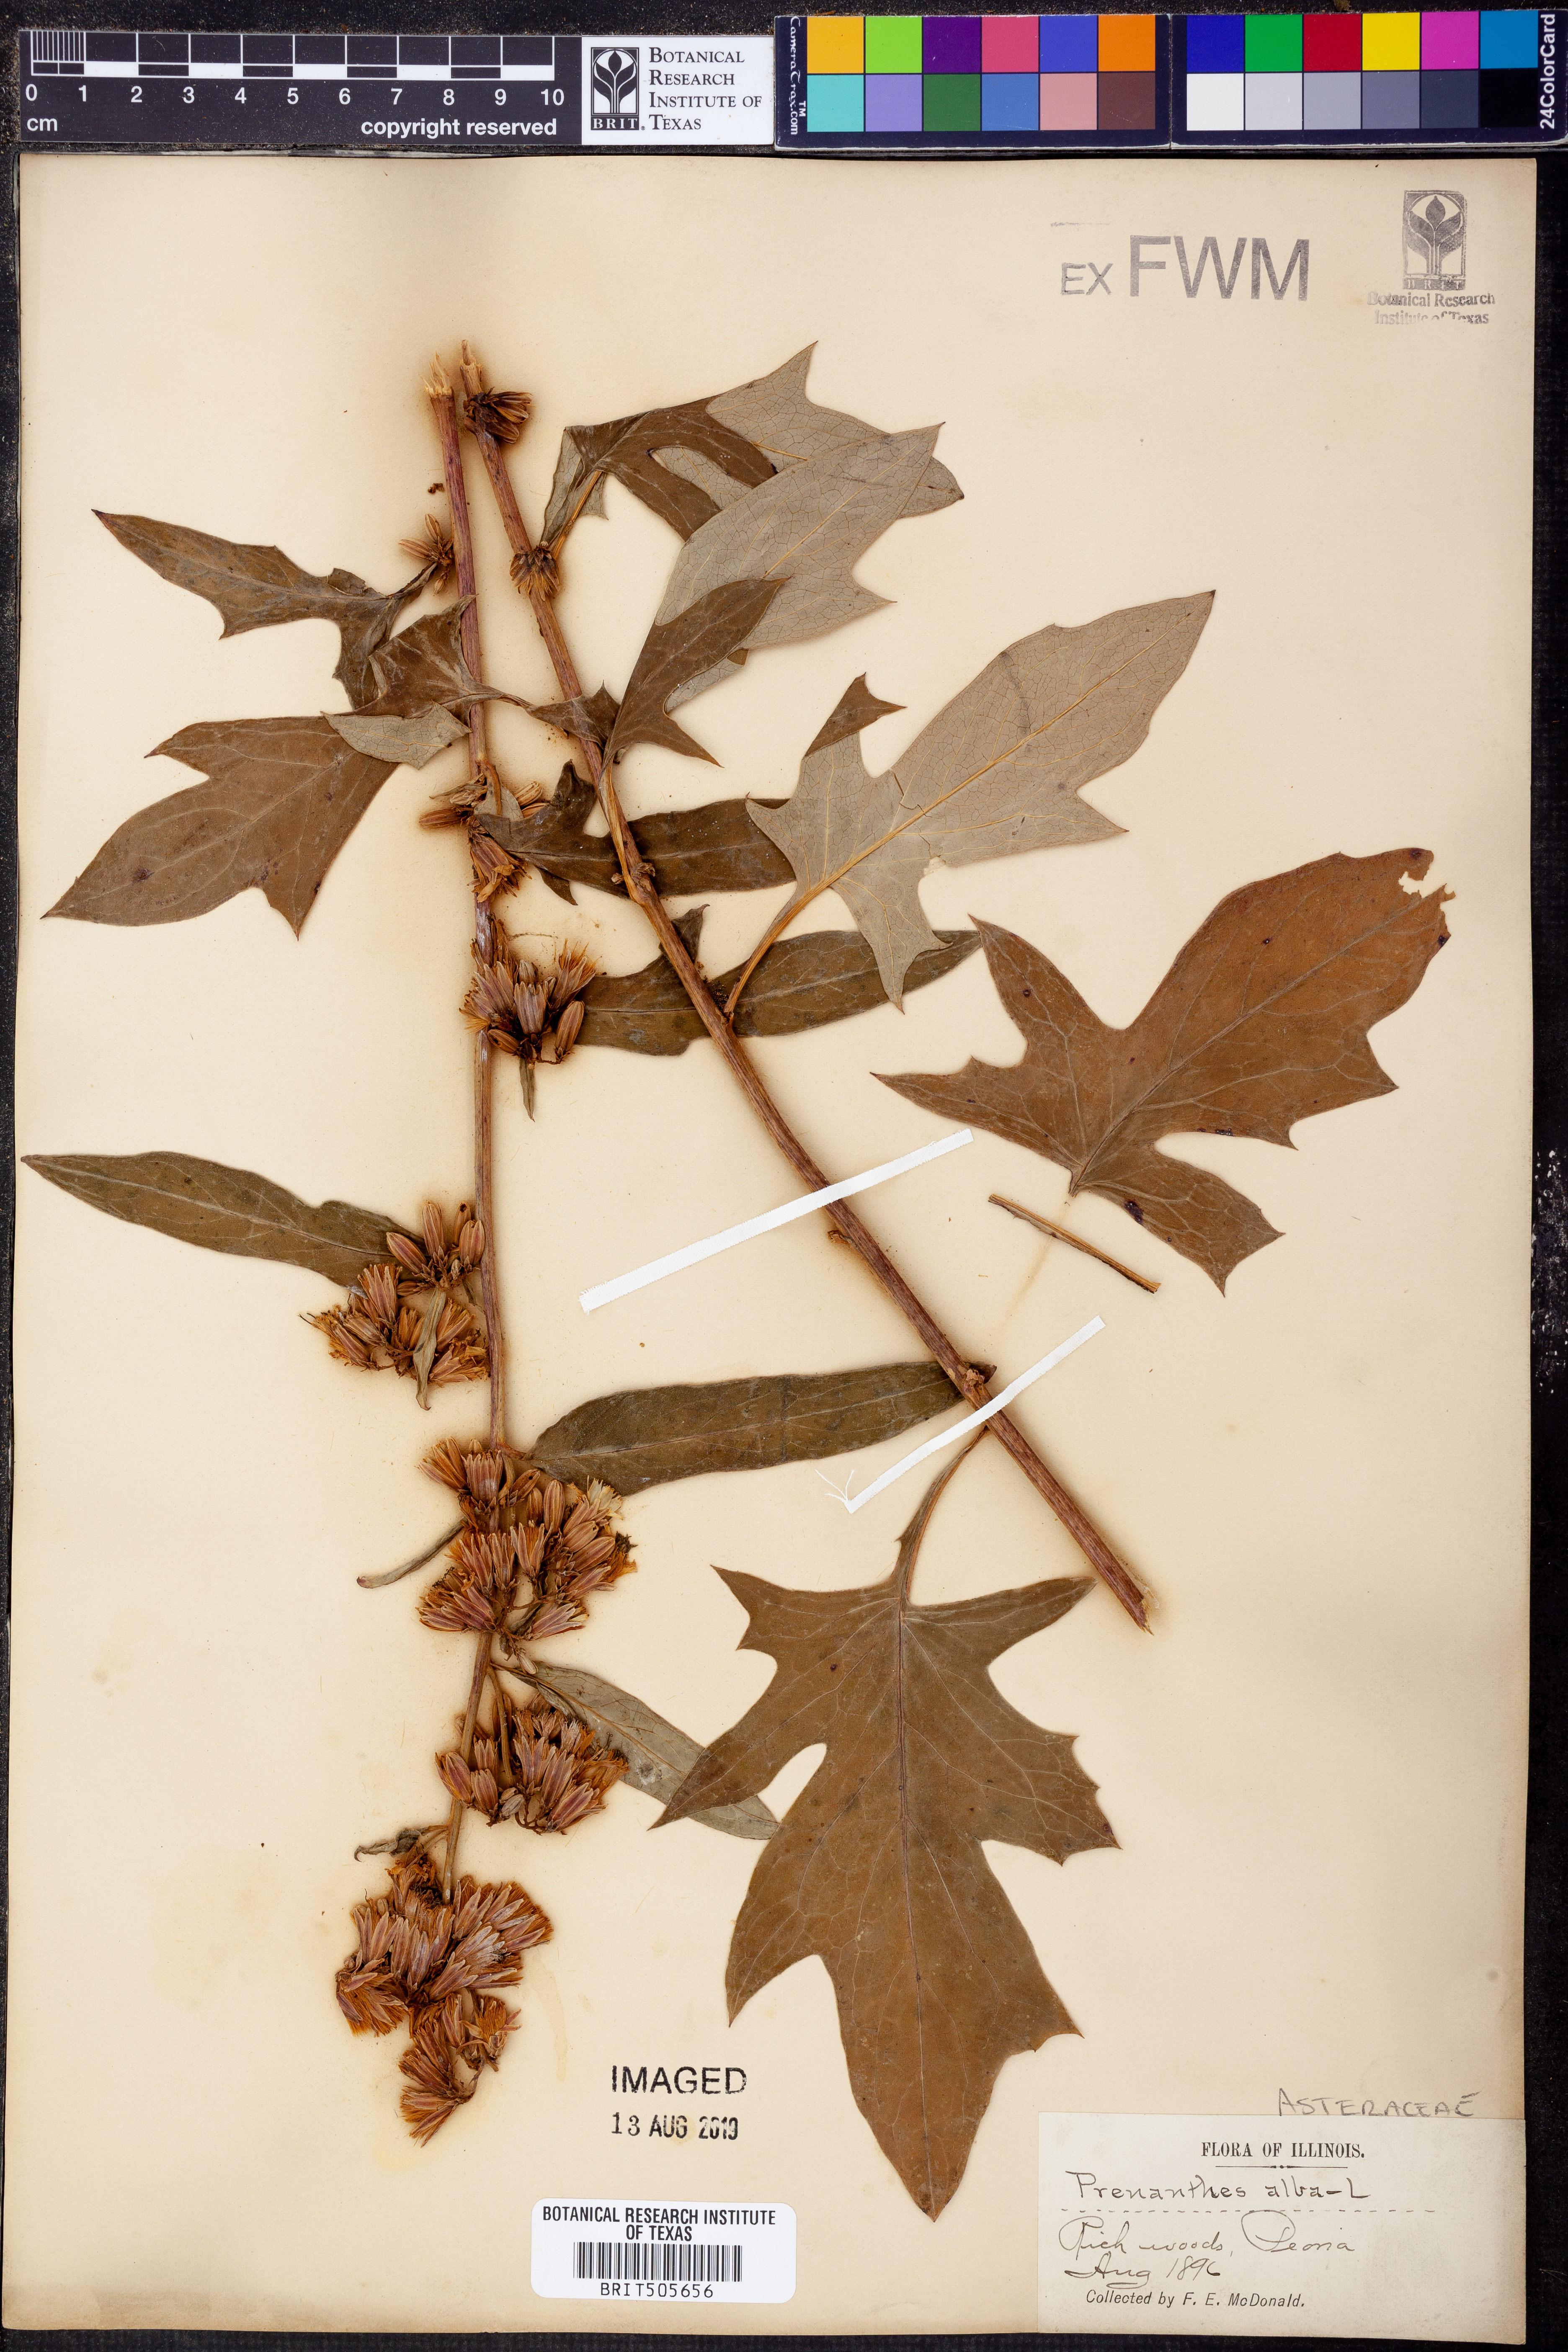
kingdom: Plantae
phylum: Tracheophyta
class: Magnoliopsida
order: Asterales
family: Asteraceae
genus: Nabalus
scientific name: Nabalus albus
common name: White rattlesnakeroot
